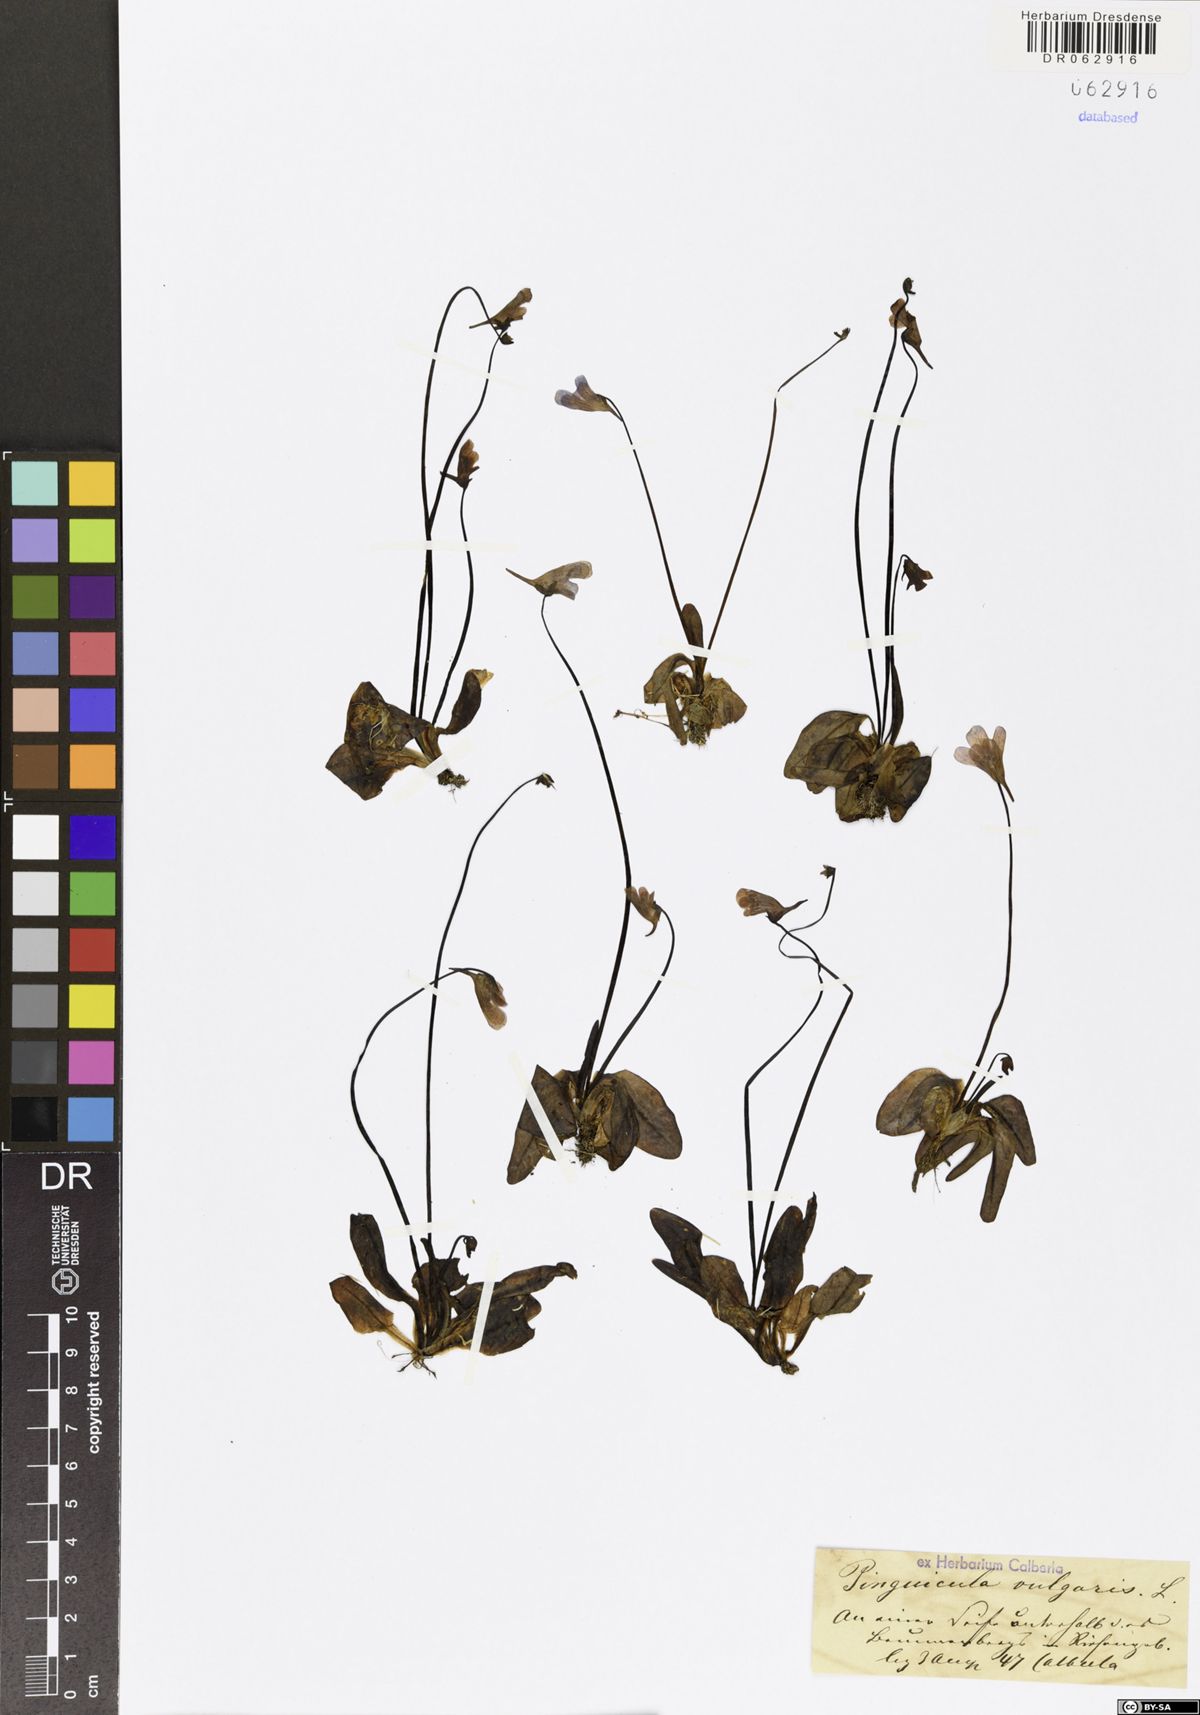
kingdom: Plantae
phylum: Tracheophyta
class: Magnoliopsida
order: Lamiales
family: Lentibulariaceae
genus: Pinguicula
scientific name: Pinguicula vulgaris
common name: Common butterwort
